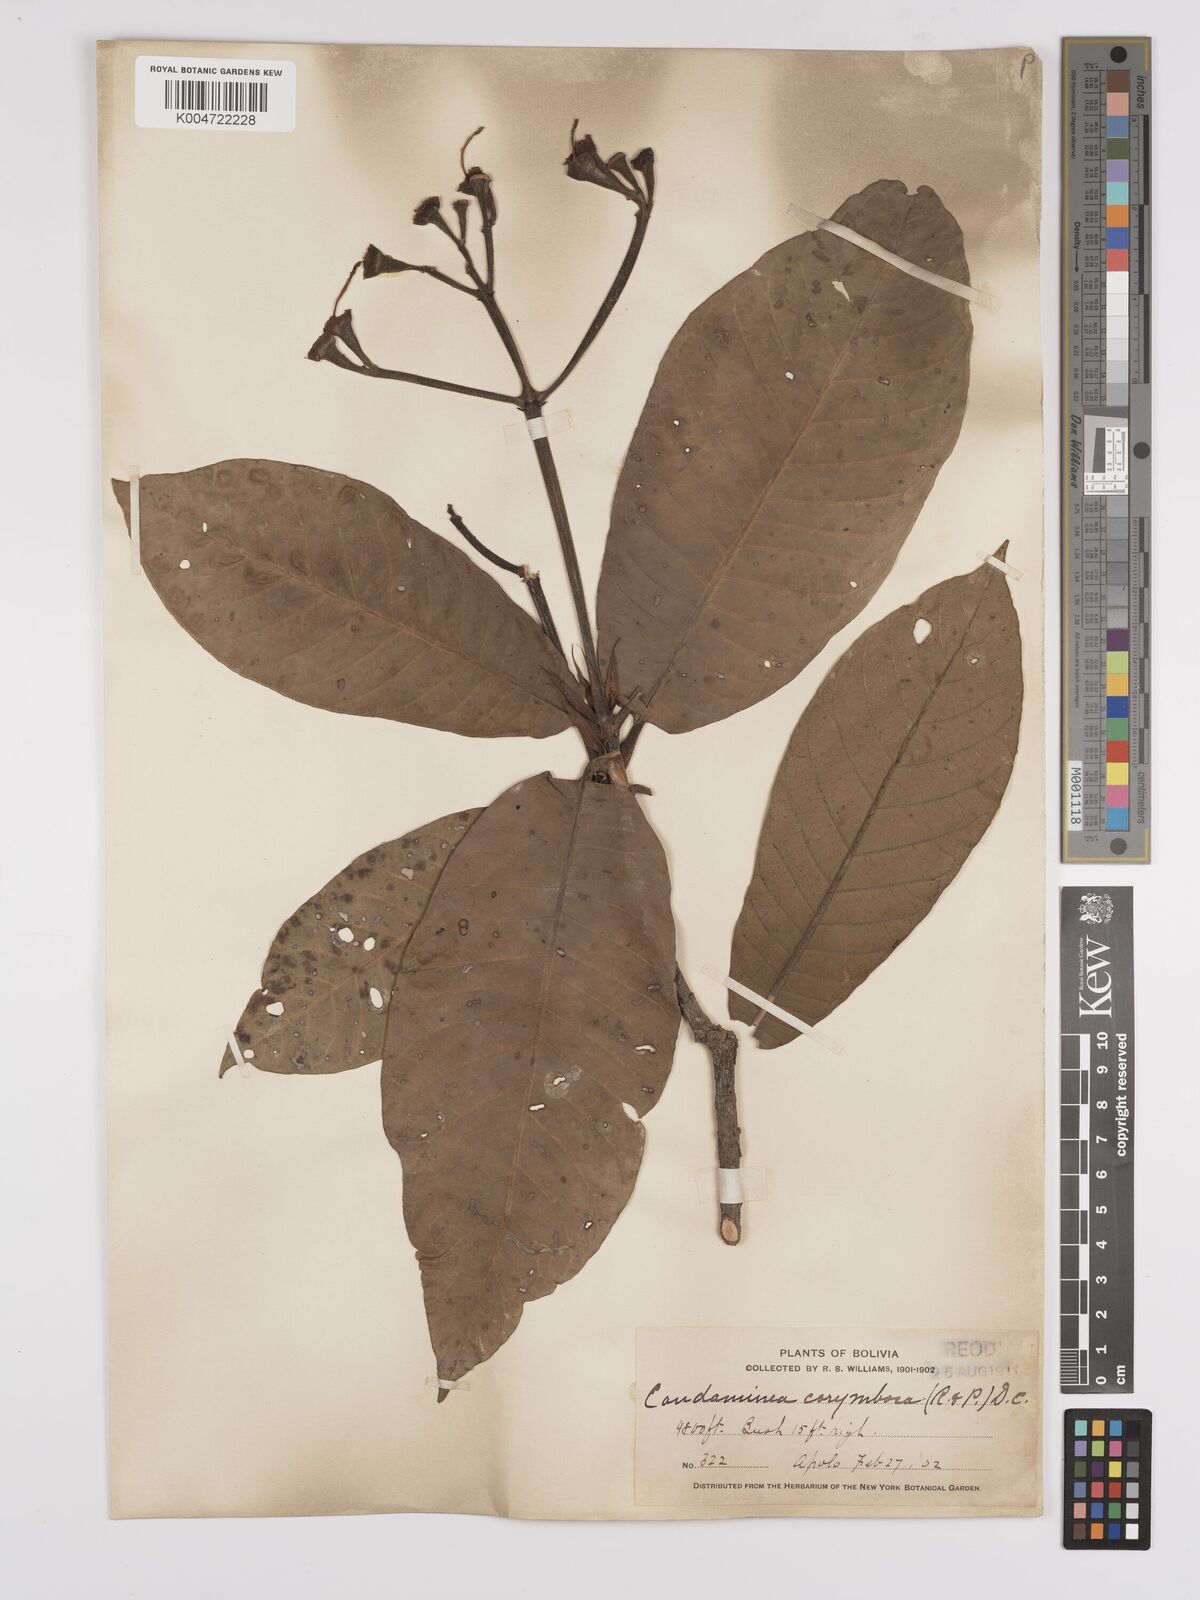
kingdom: Plantae
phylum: Tracheophyta
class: Magnoliopsida
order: Gentianales
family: Rubiaceae
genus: Condaminea
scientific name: Condaminea corymbosa
